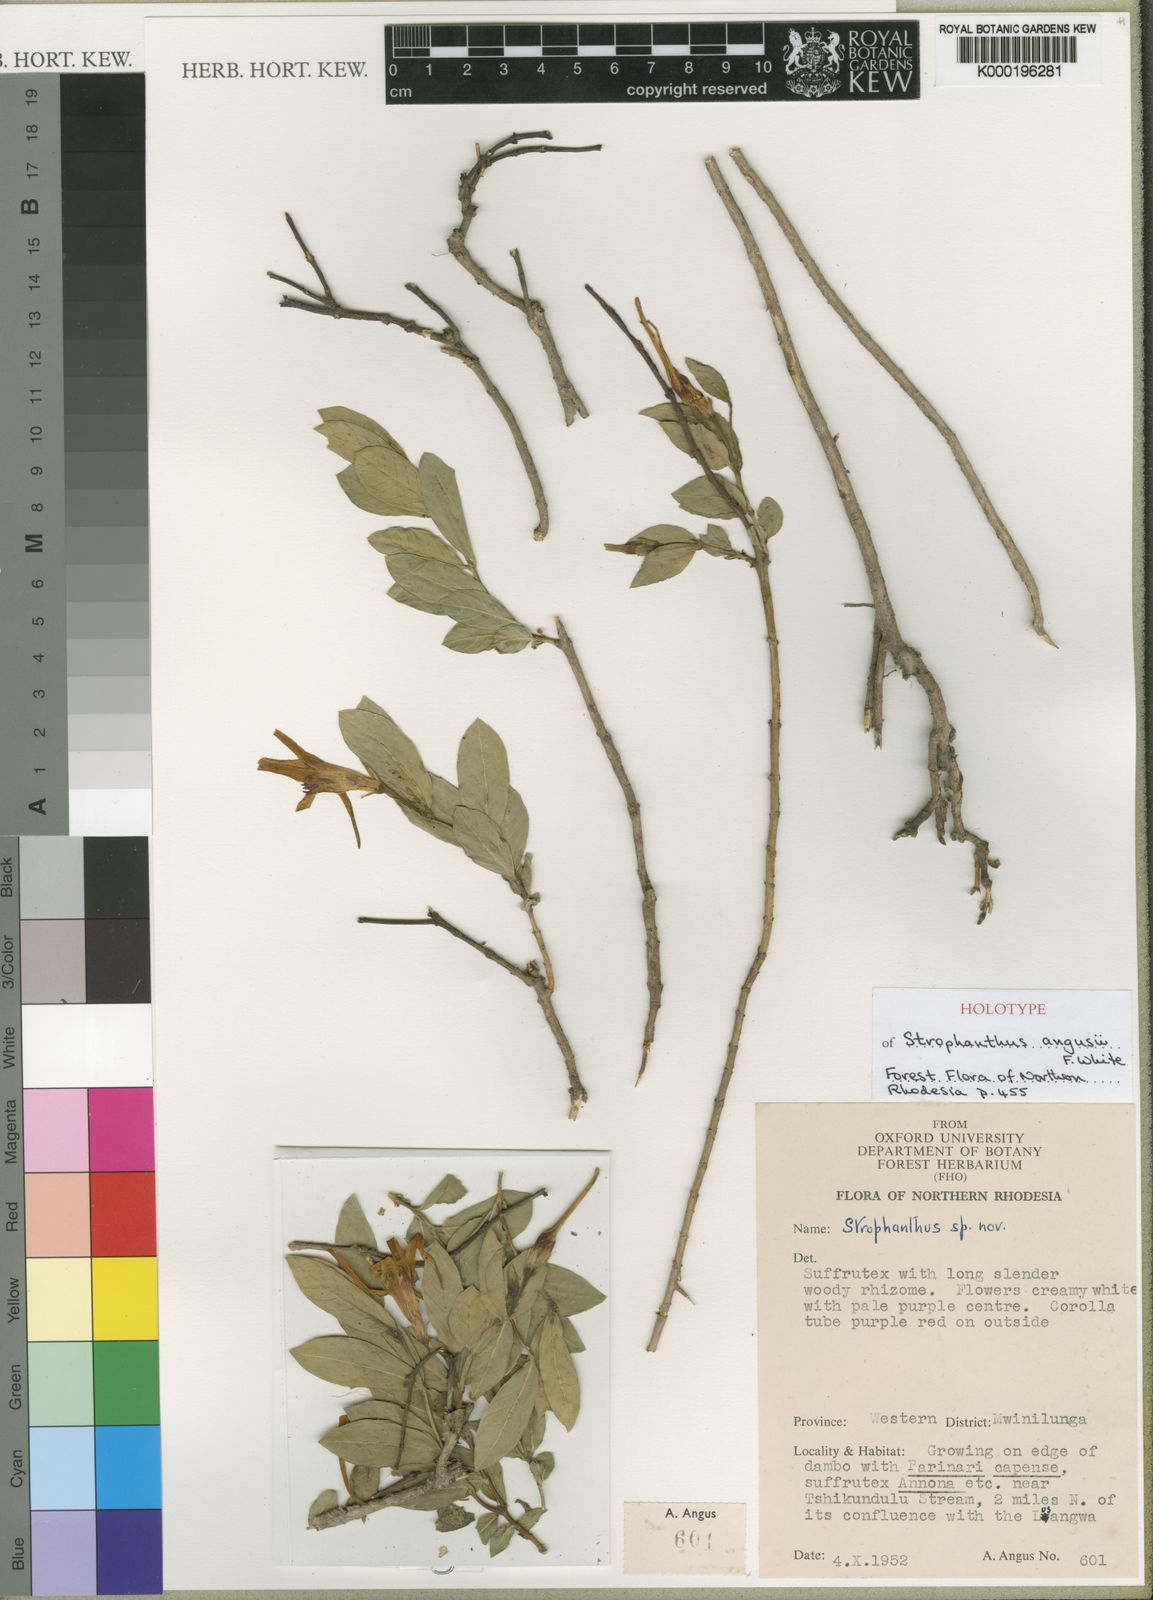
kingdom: Plantae
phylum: Tracheophyta
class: Magnoliopsida
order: Gentianales
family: Apocynaceae
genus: Strophanthus
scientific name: Strophanthus welwitschii
